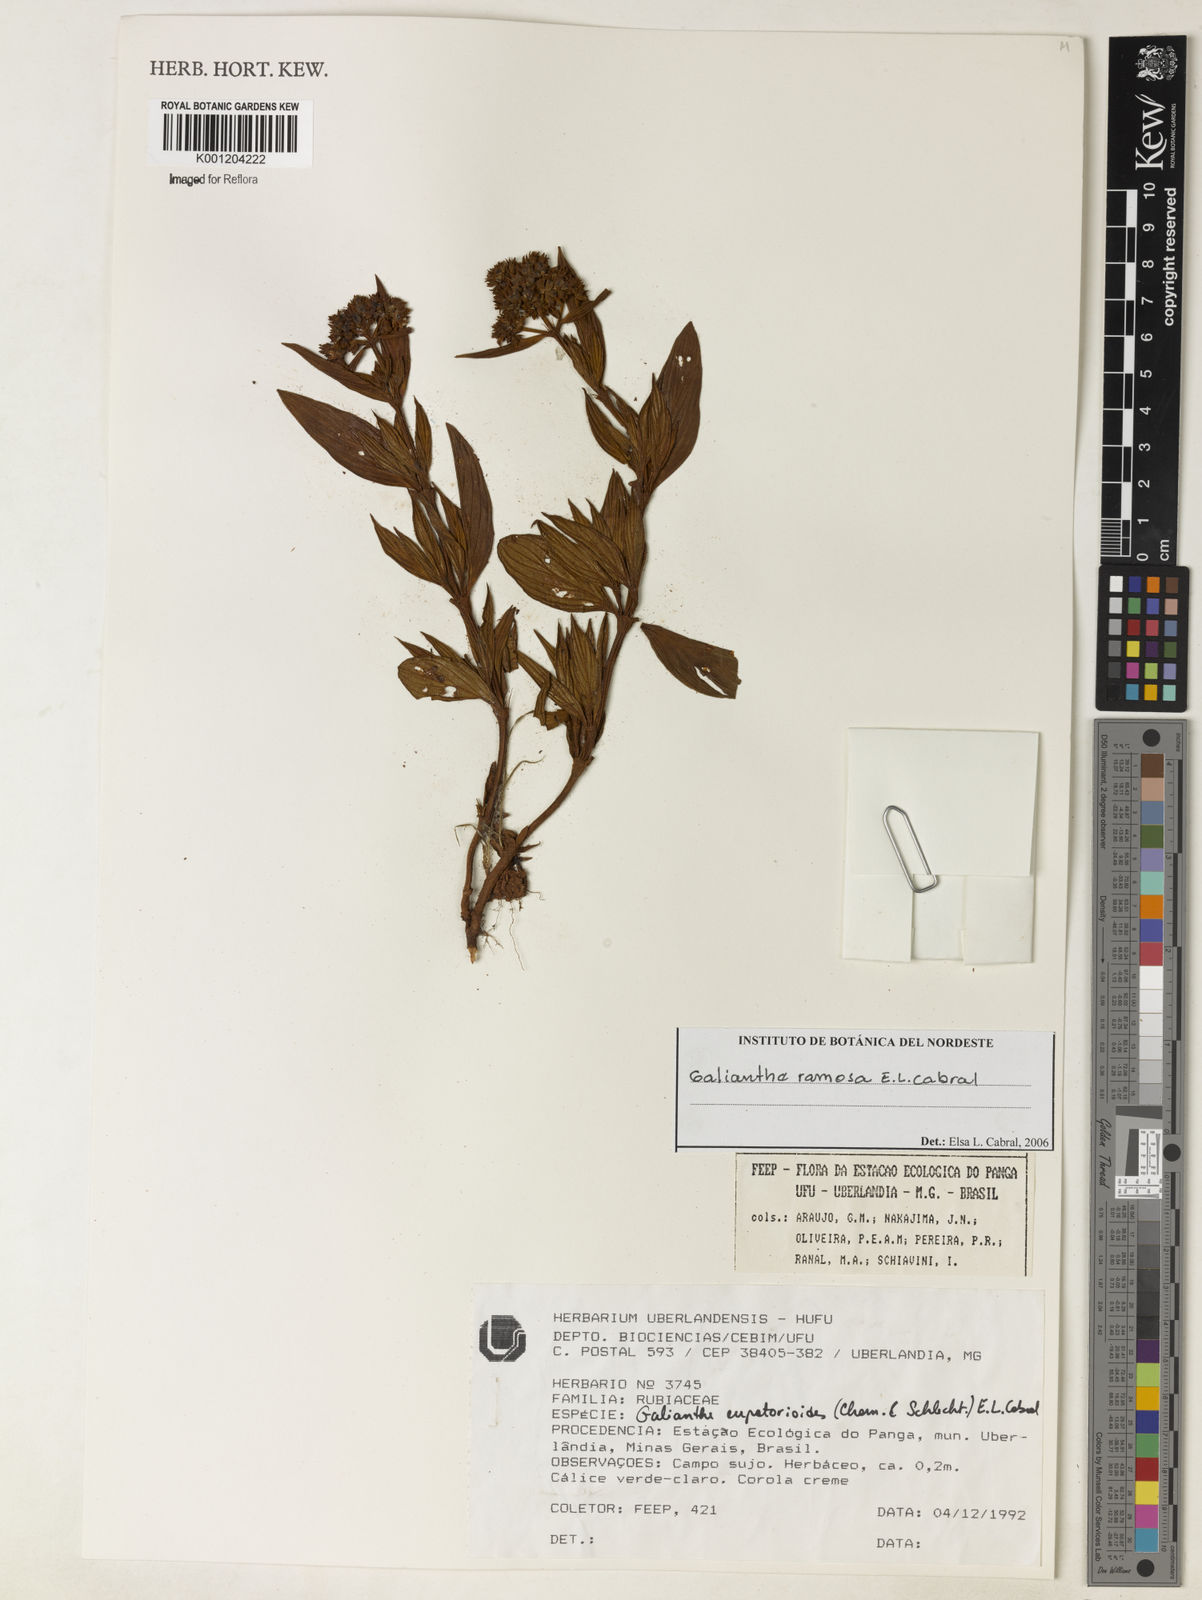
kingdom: Plantae
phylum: Tracheophyta
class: Magnoliopsida
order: Gentianales
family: Rubiaceae
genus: Galianthe
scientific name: Galianthe ramosa
